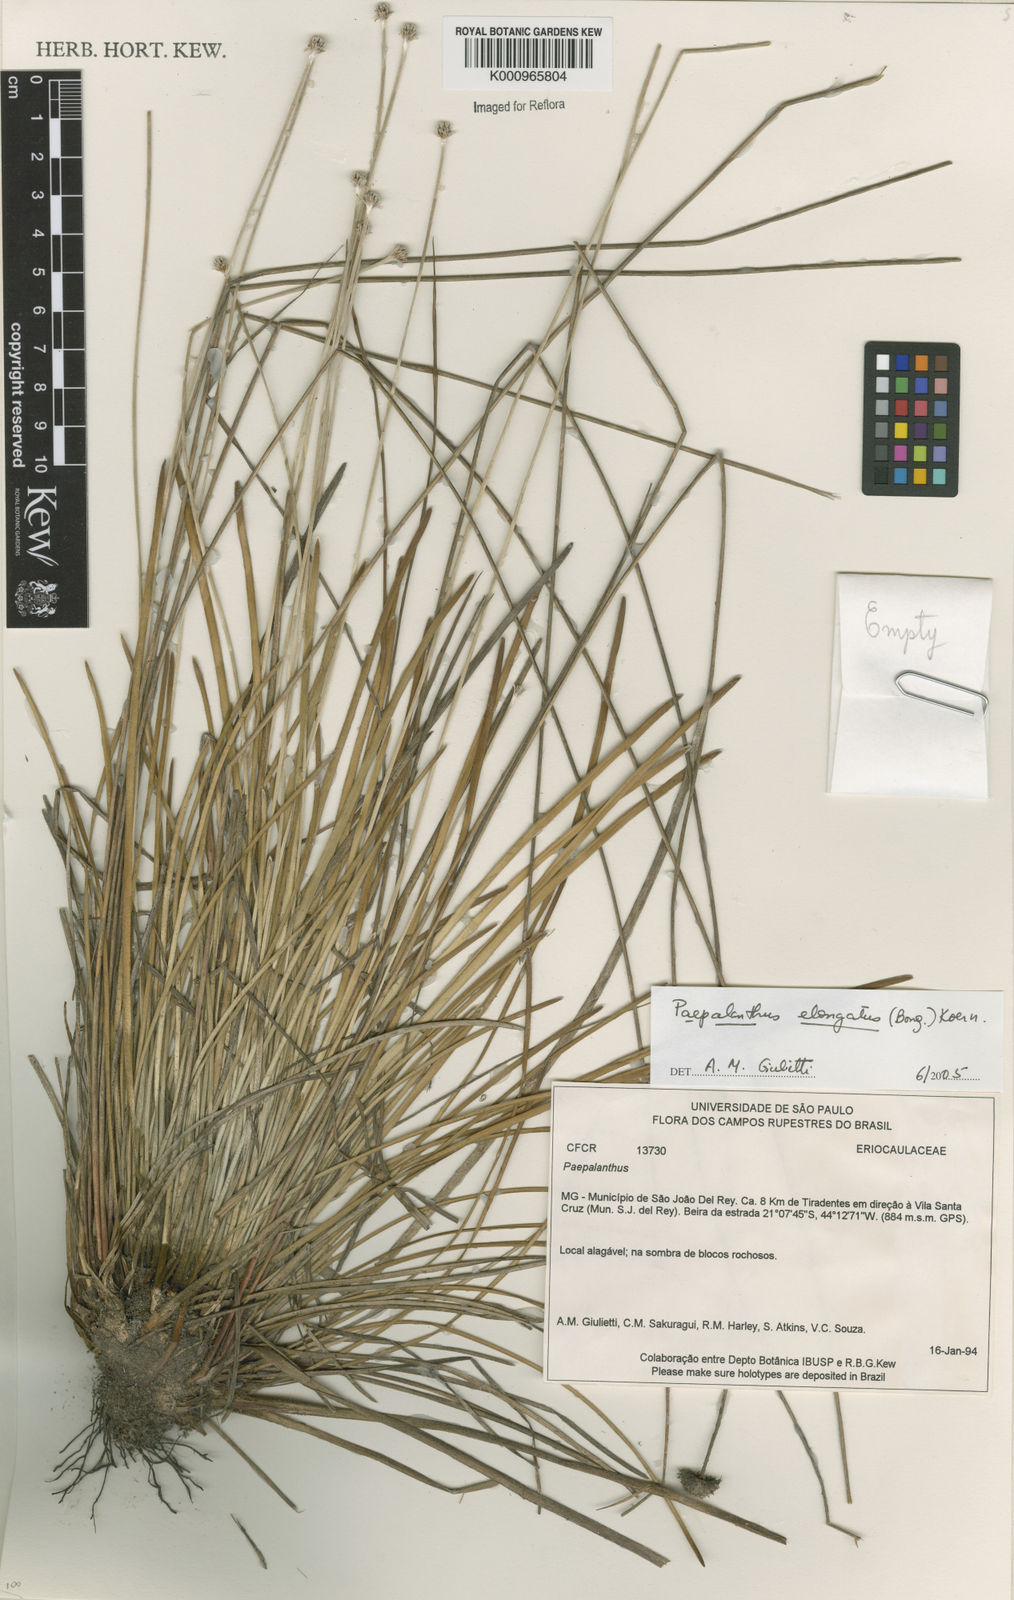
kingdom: Plantae
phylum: Tracheophyta
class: Liliopsida
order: Poales
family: Eriocaulaceae
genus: Paepalanthus
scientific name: Paepalanthus
